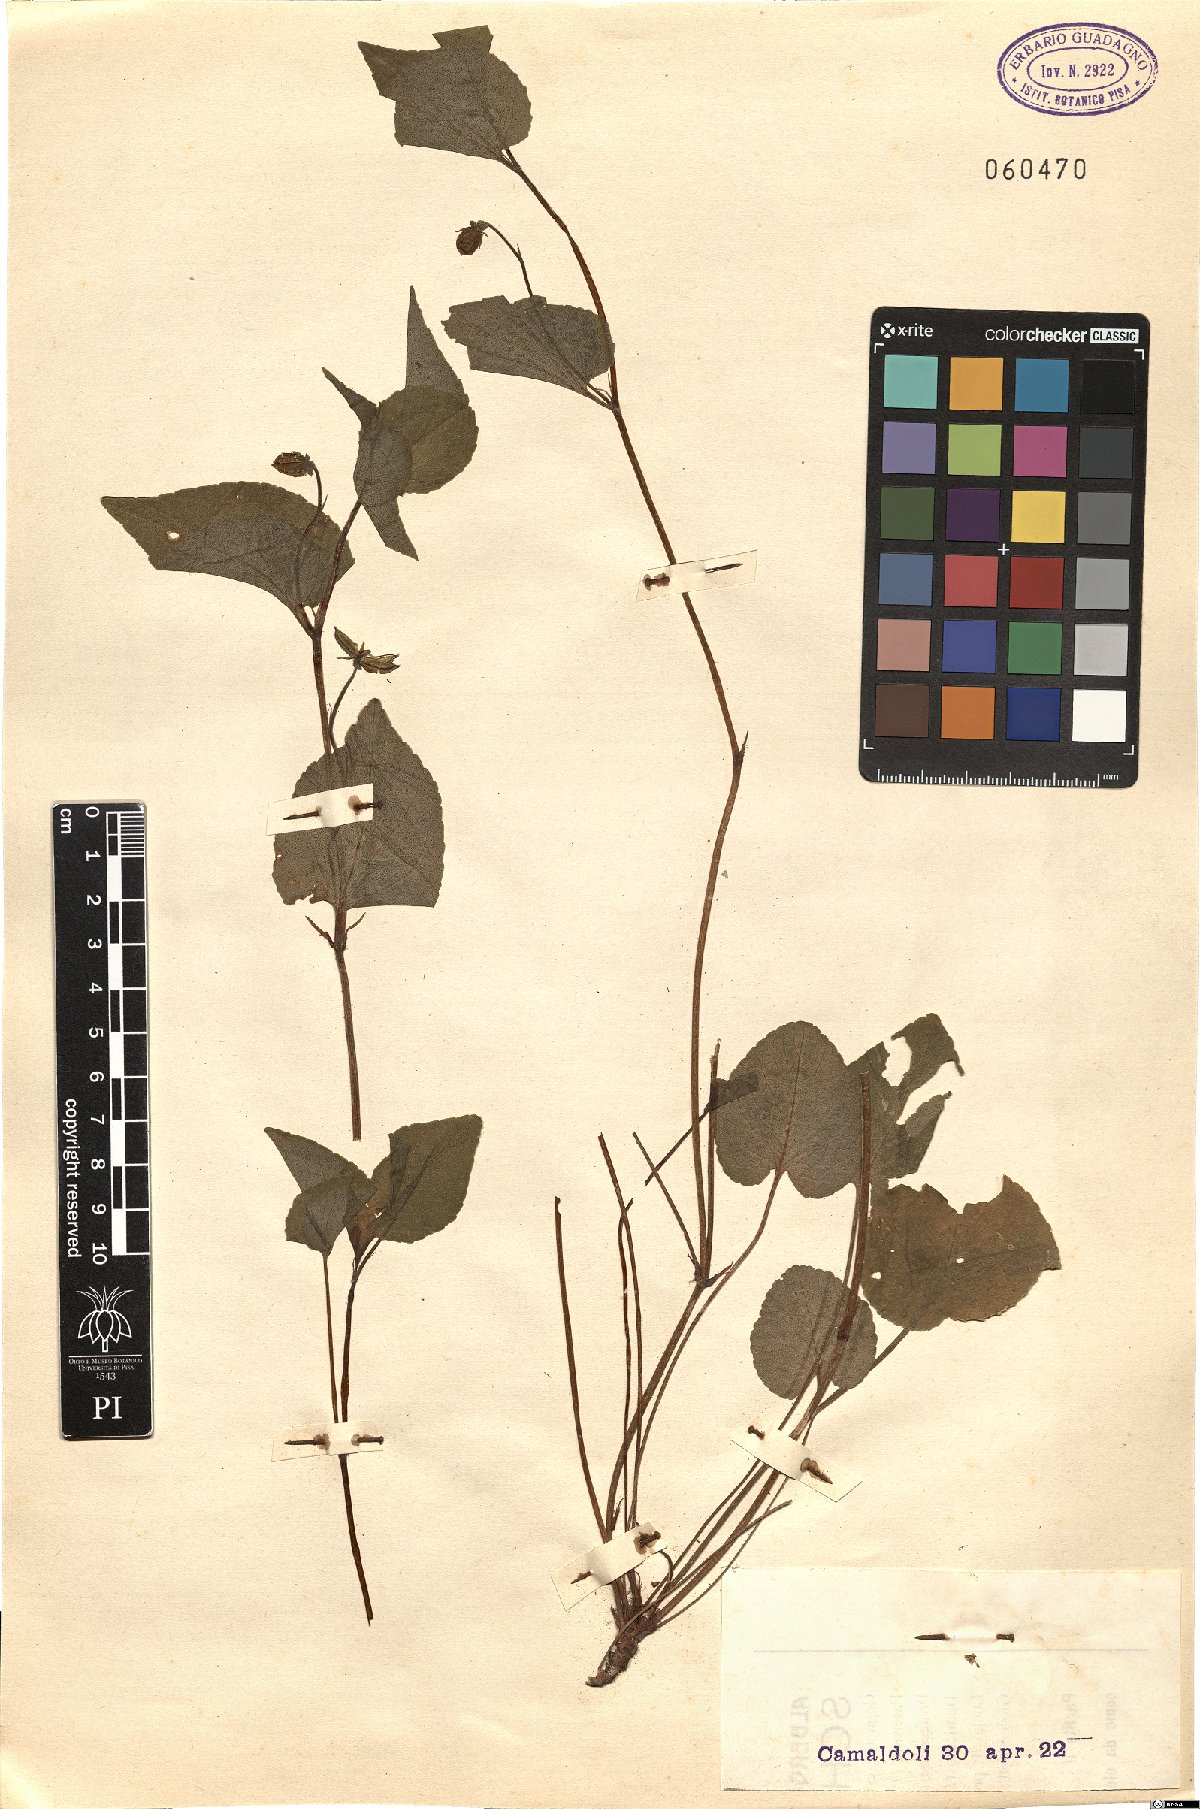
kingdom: Plantae
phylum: Tracheophyta
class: Magnoliopsida
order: Malpighiales
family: Violaceae
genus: Viola
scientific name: Viola
